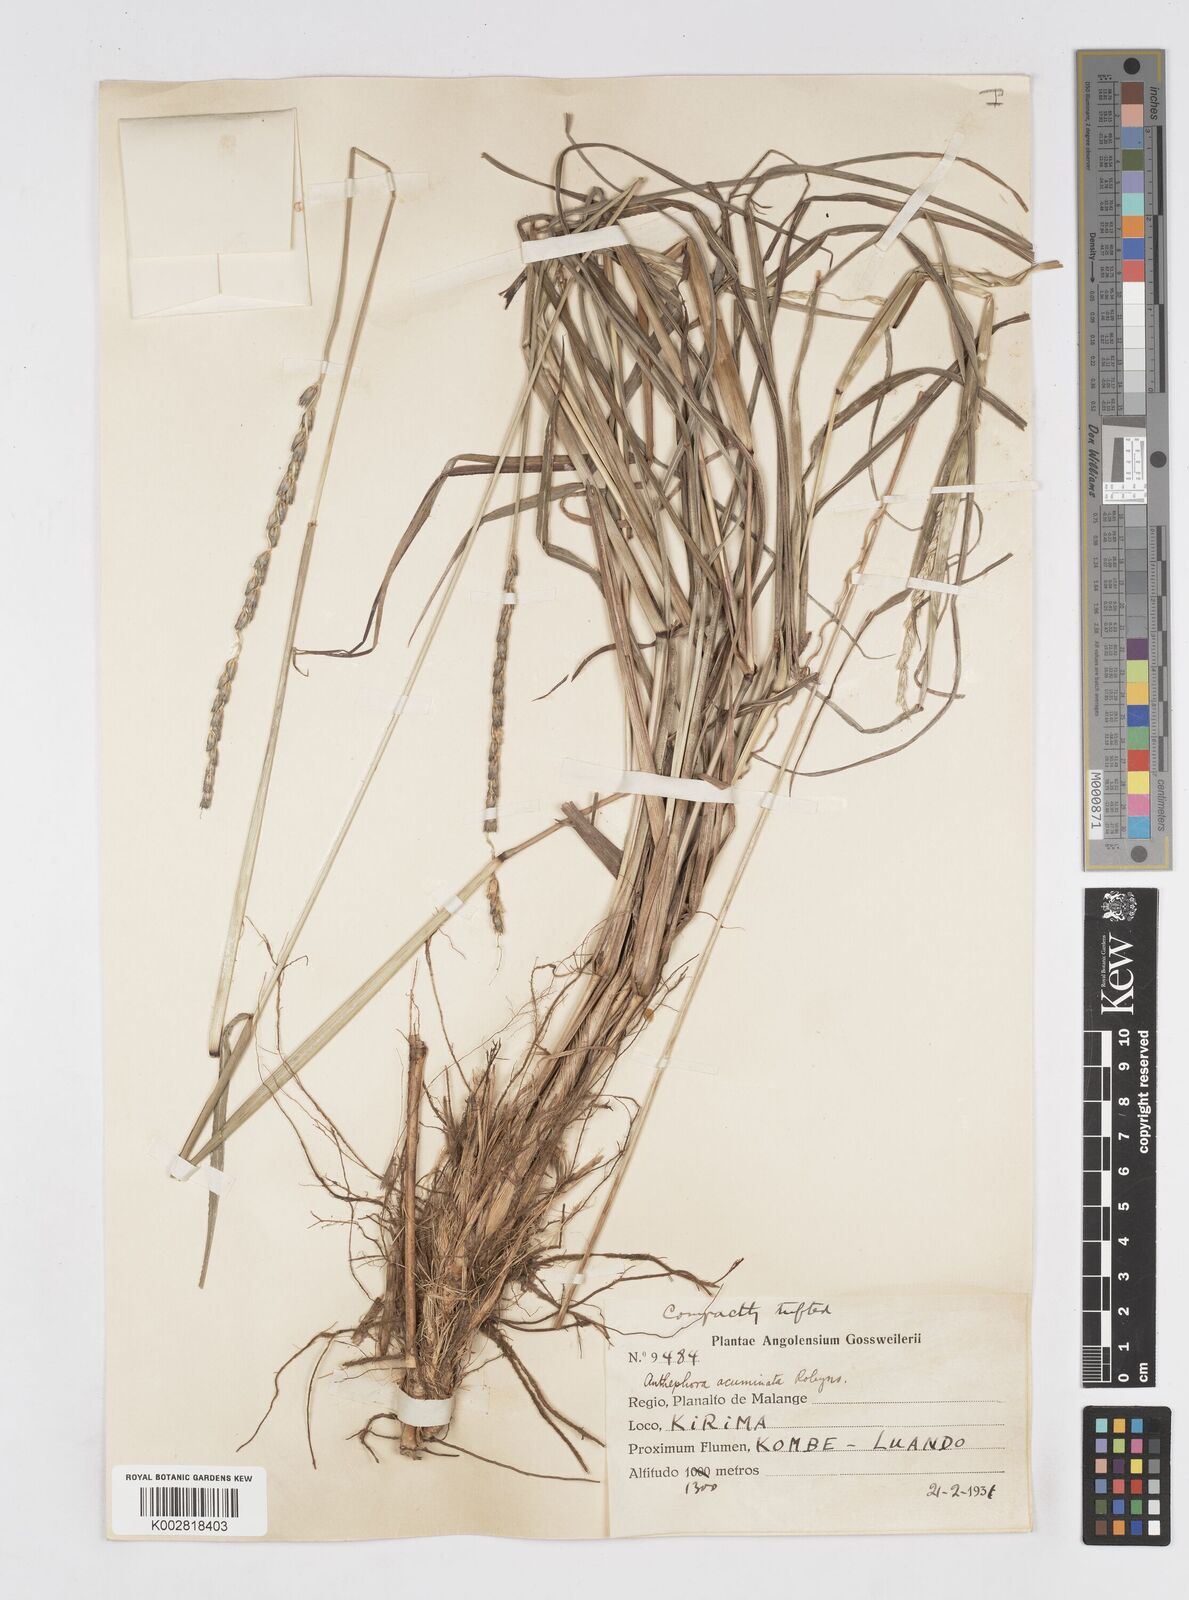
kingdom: Plantae
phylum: Tracheophyta
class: Liliopsida
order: Poales
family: Poaceae
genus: Anthephora
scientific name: Anthephora elongata
